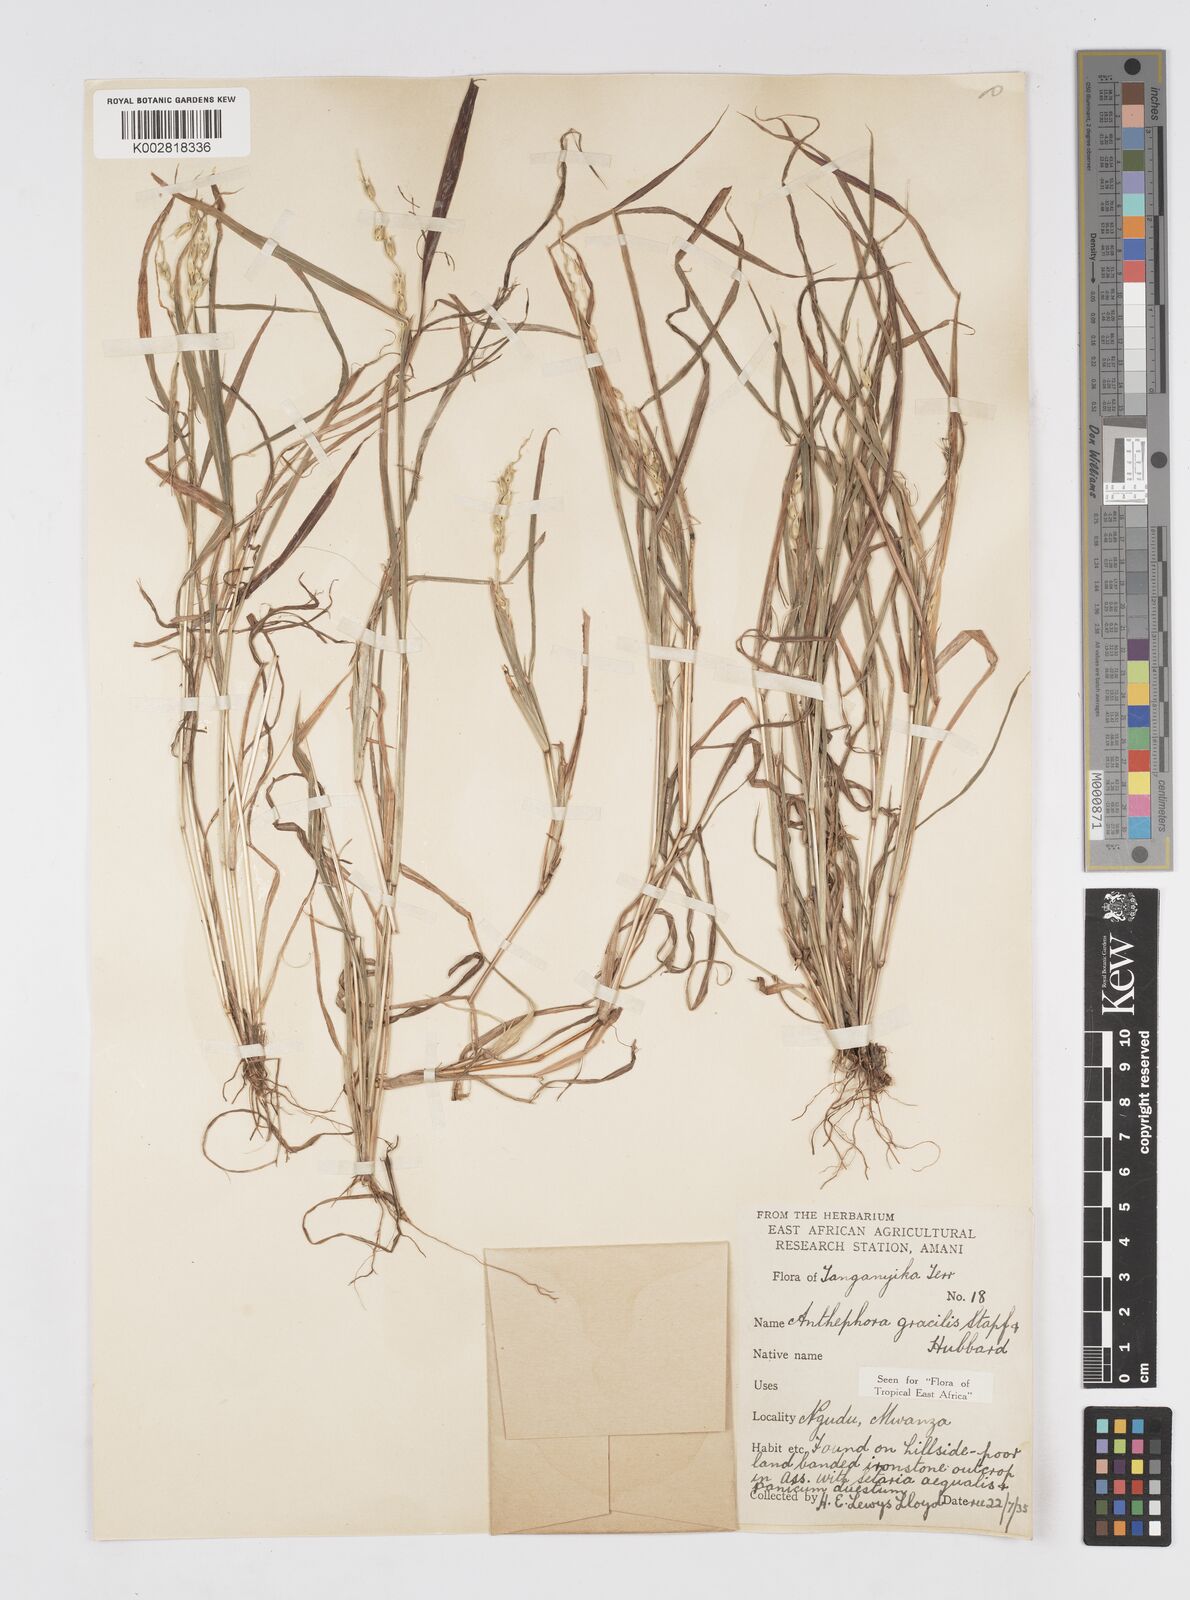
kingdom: Plantae
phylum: Tracheophyta
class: Liliopsida
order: Poales
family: Poaceae
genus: Anthephora
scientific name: Anthephora truncata
